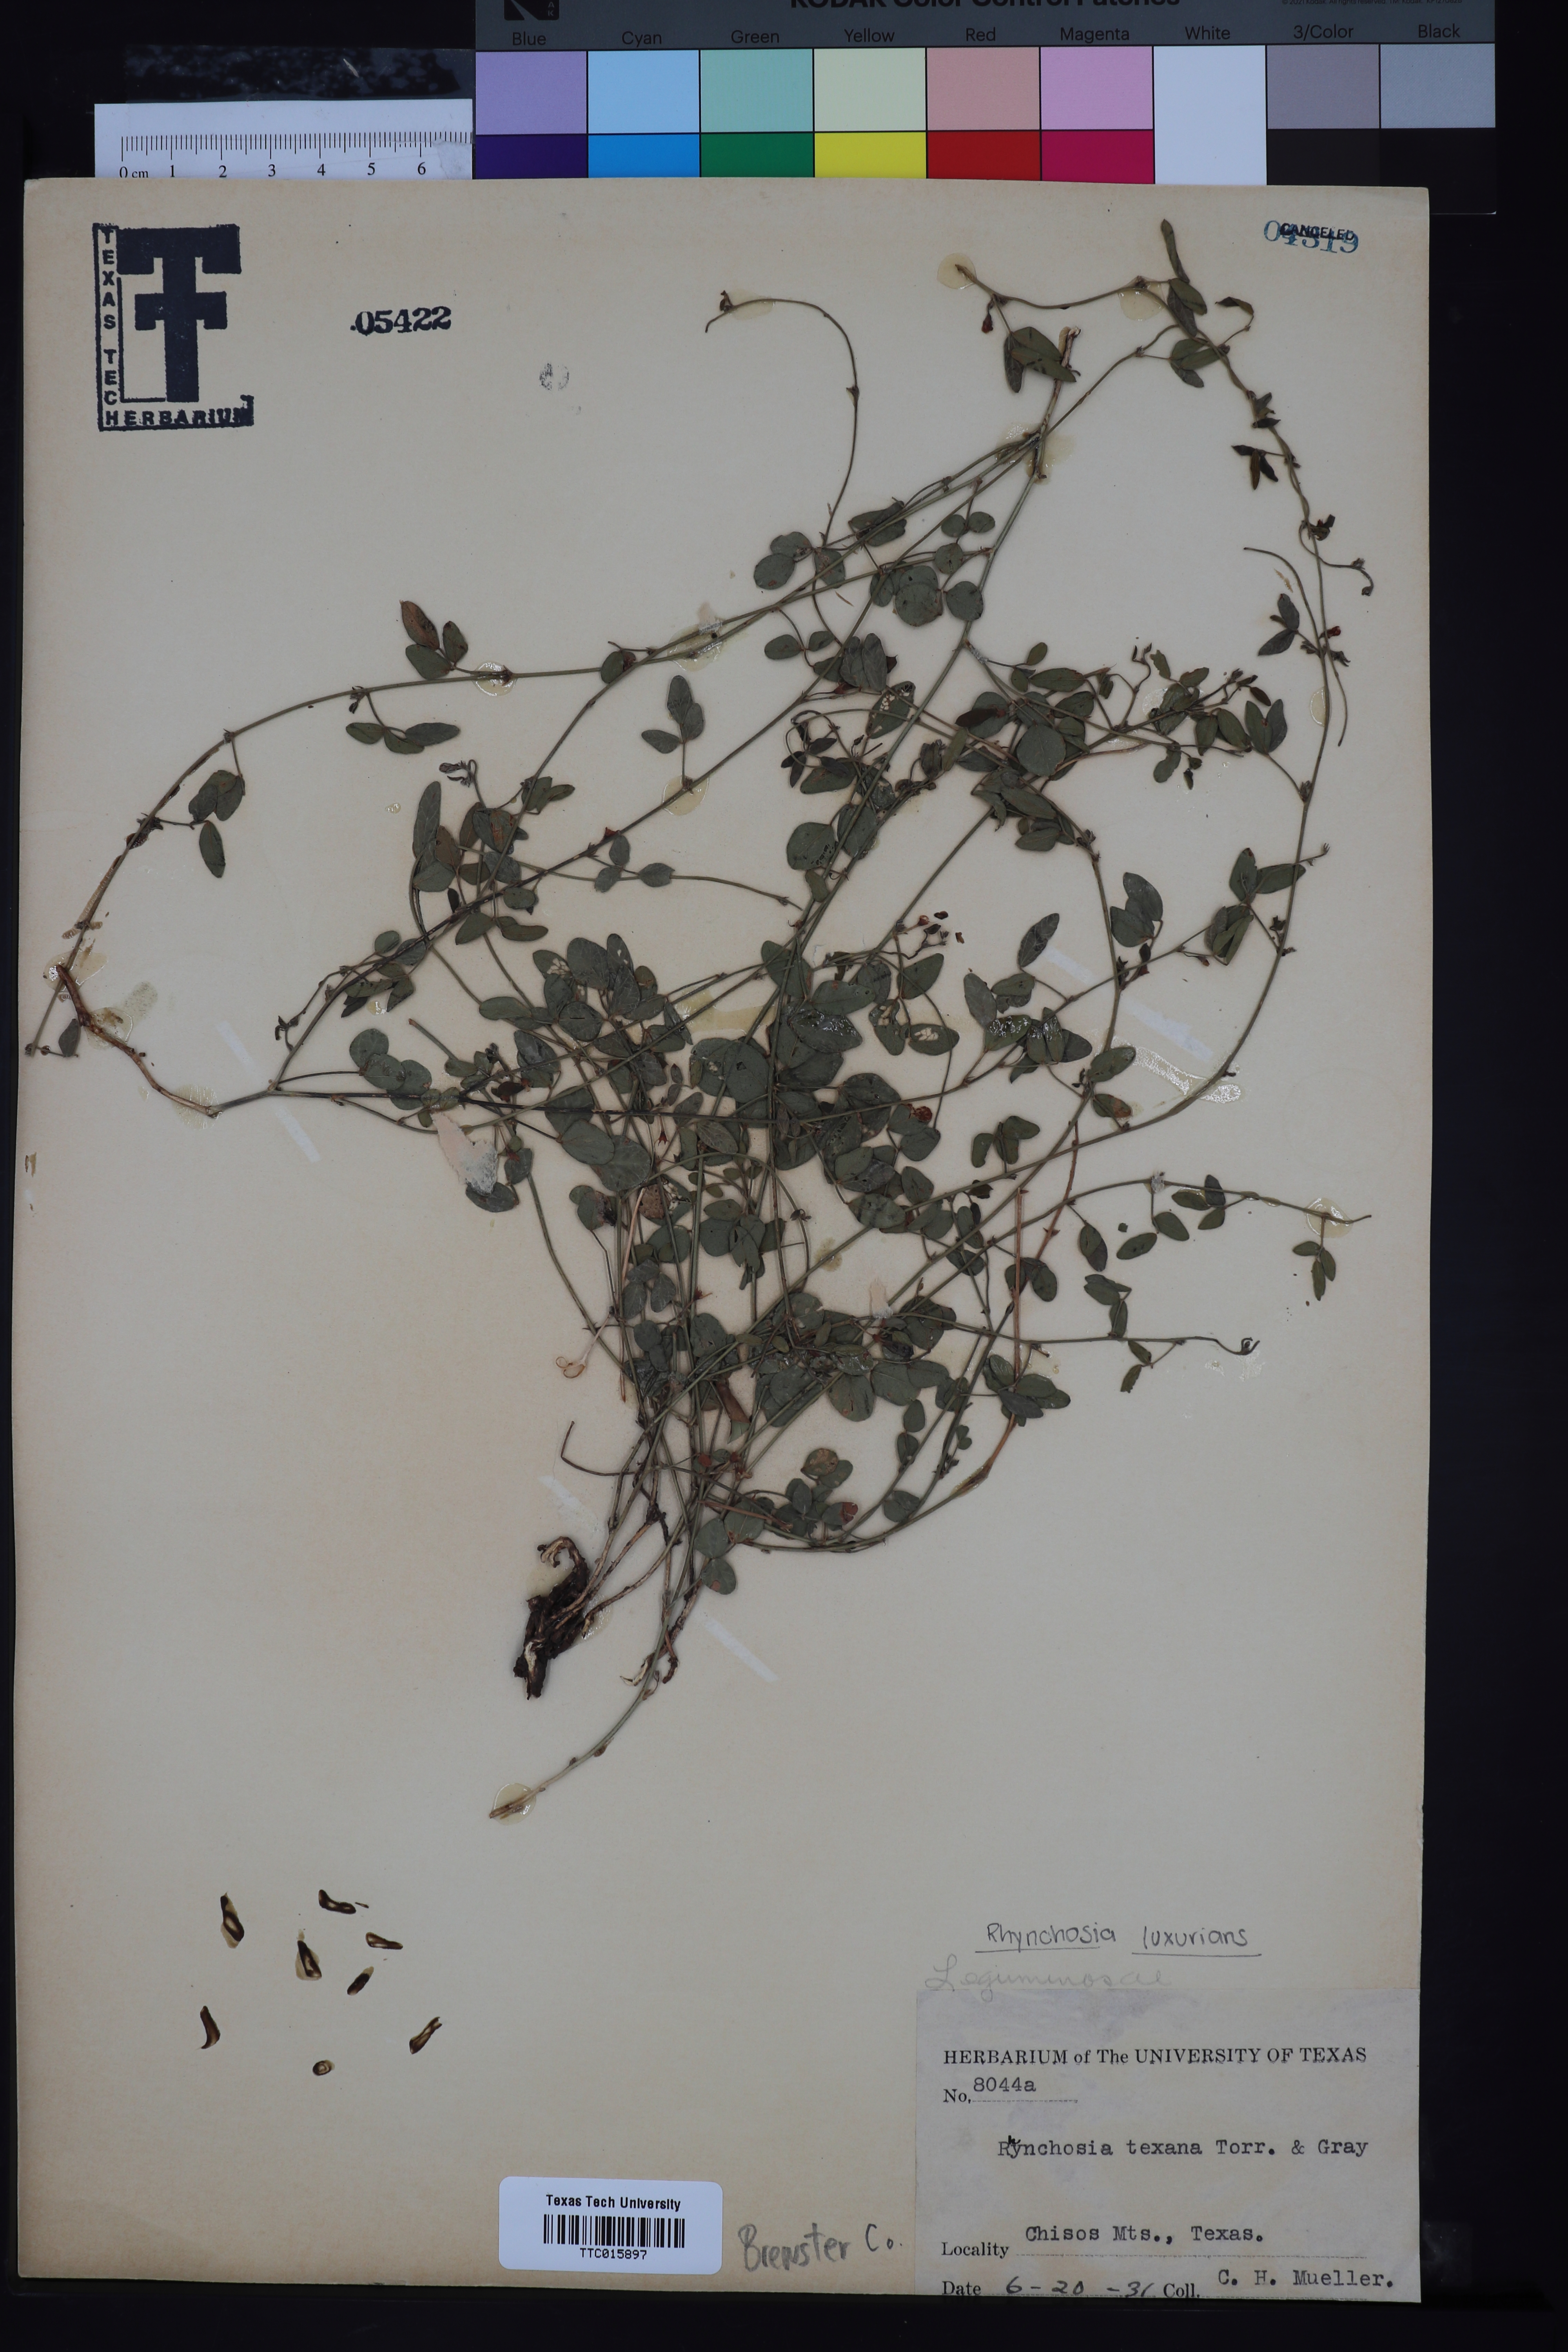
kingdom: Plantae
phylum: Tracheophyta
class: Magnoliopsida
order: Fabales
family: Fabaceae
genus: Rhynchosia
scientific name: Rhynchosia senna
